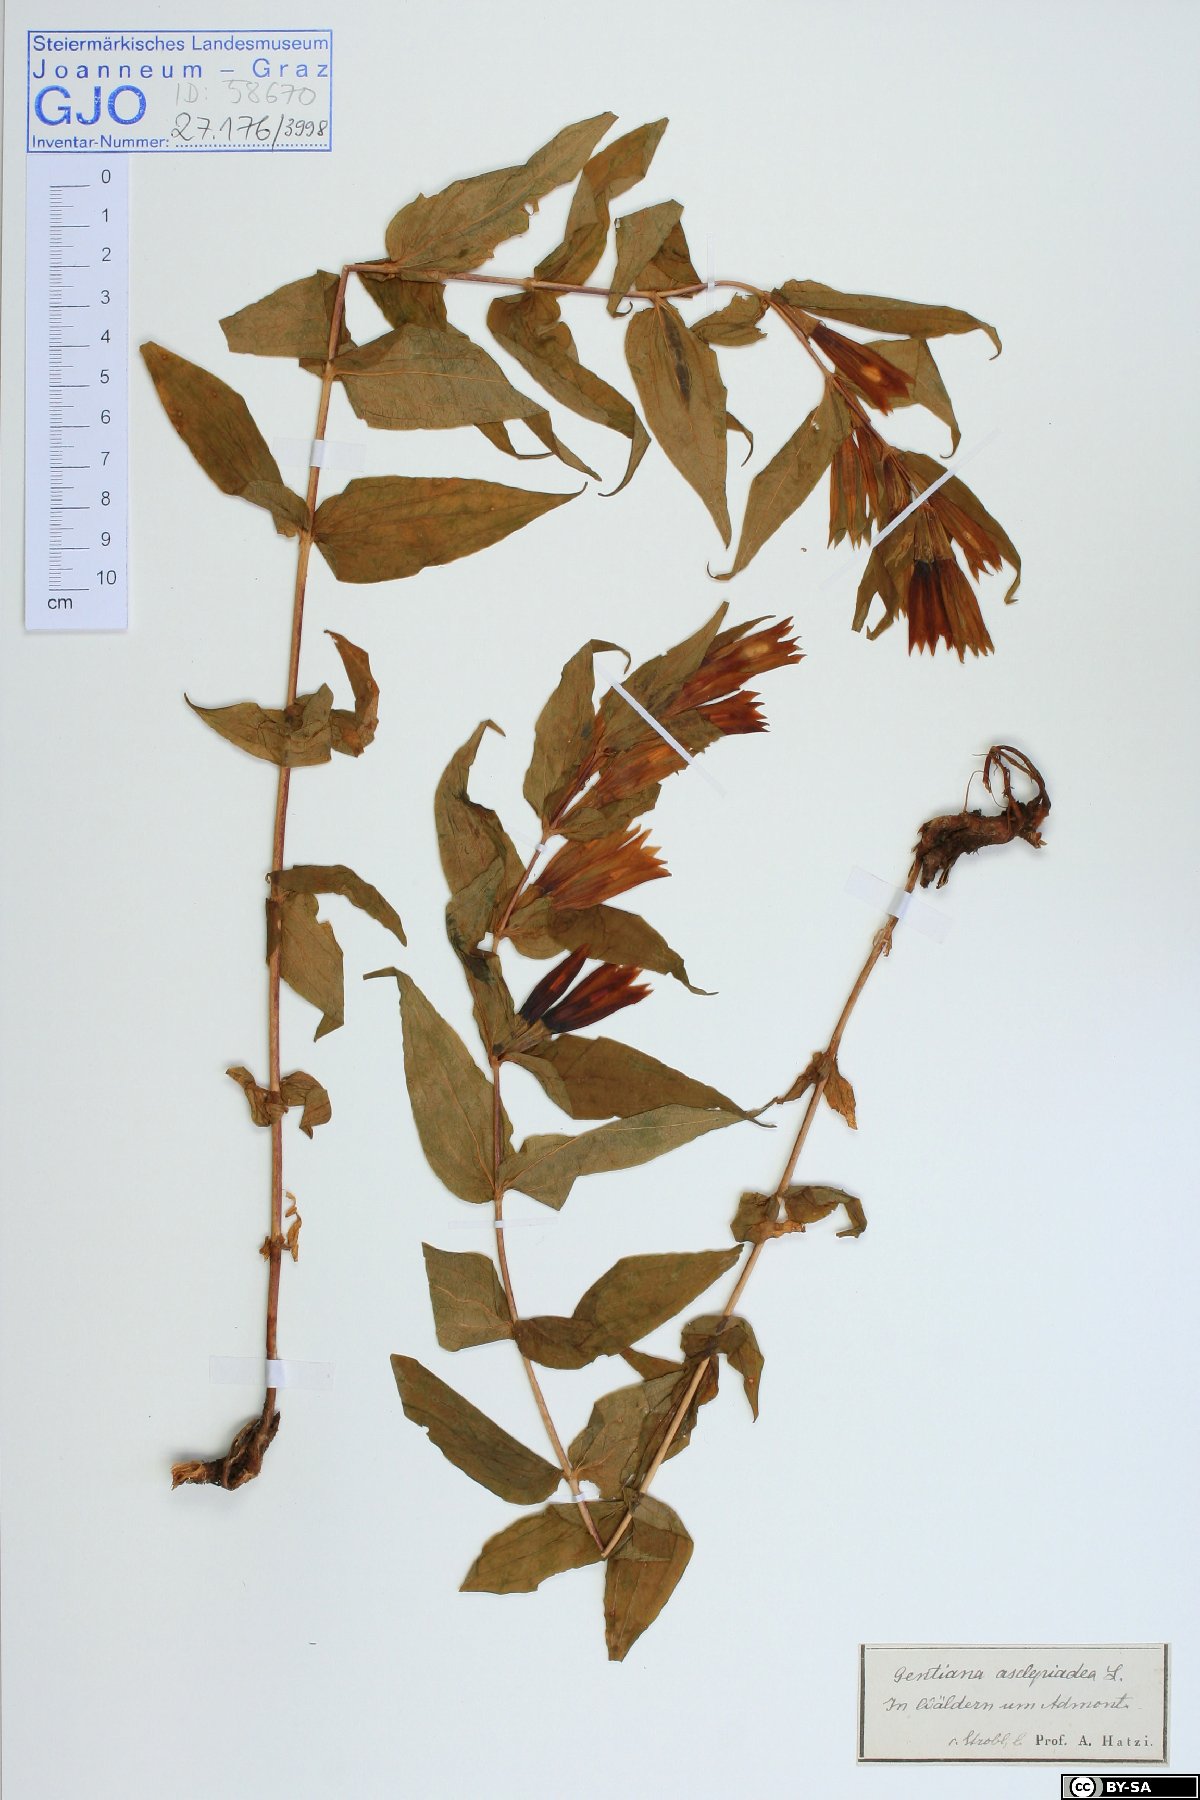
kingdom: Plantae
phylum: Tracheophyta
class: Magnoliopsida
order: Gentianales
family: Gentianaceae
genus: Gentiana
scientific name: Gentiana asclepiadea
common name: Willow gentian
